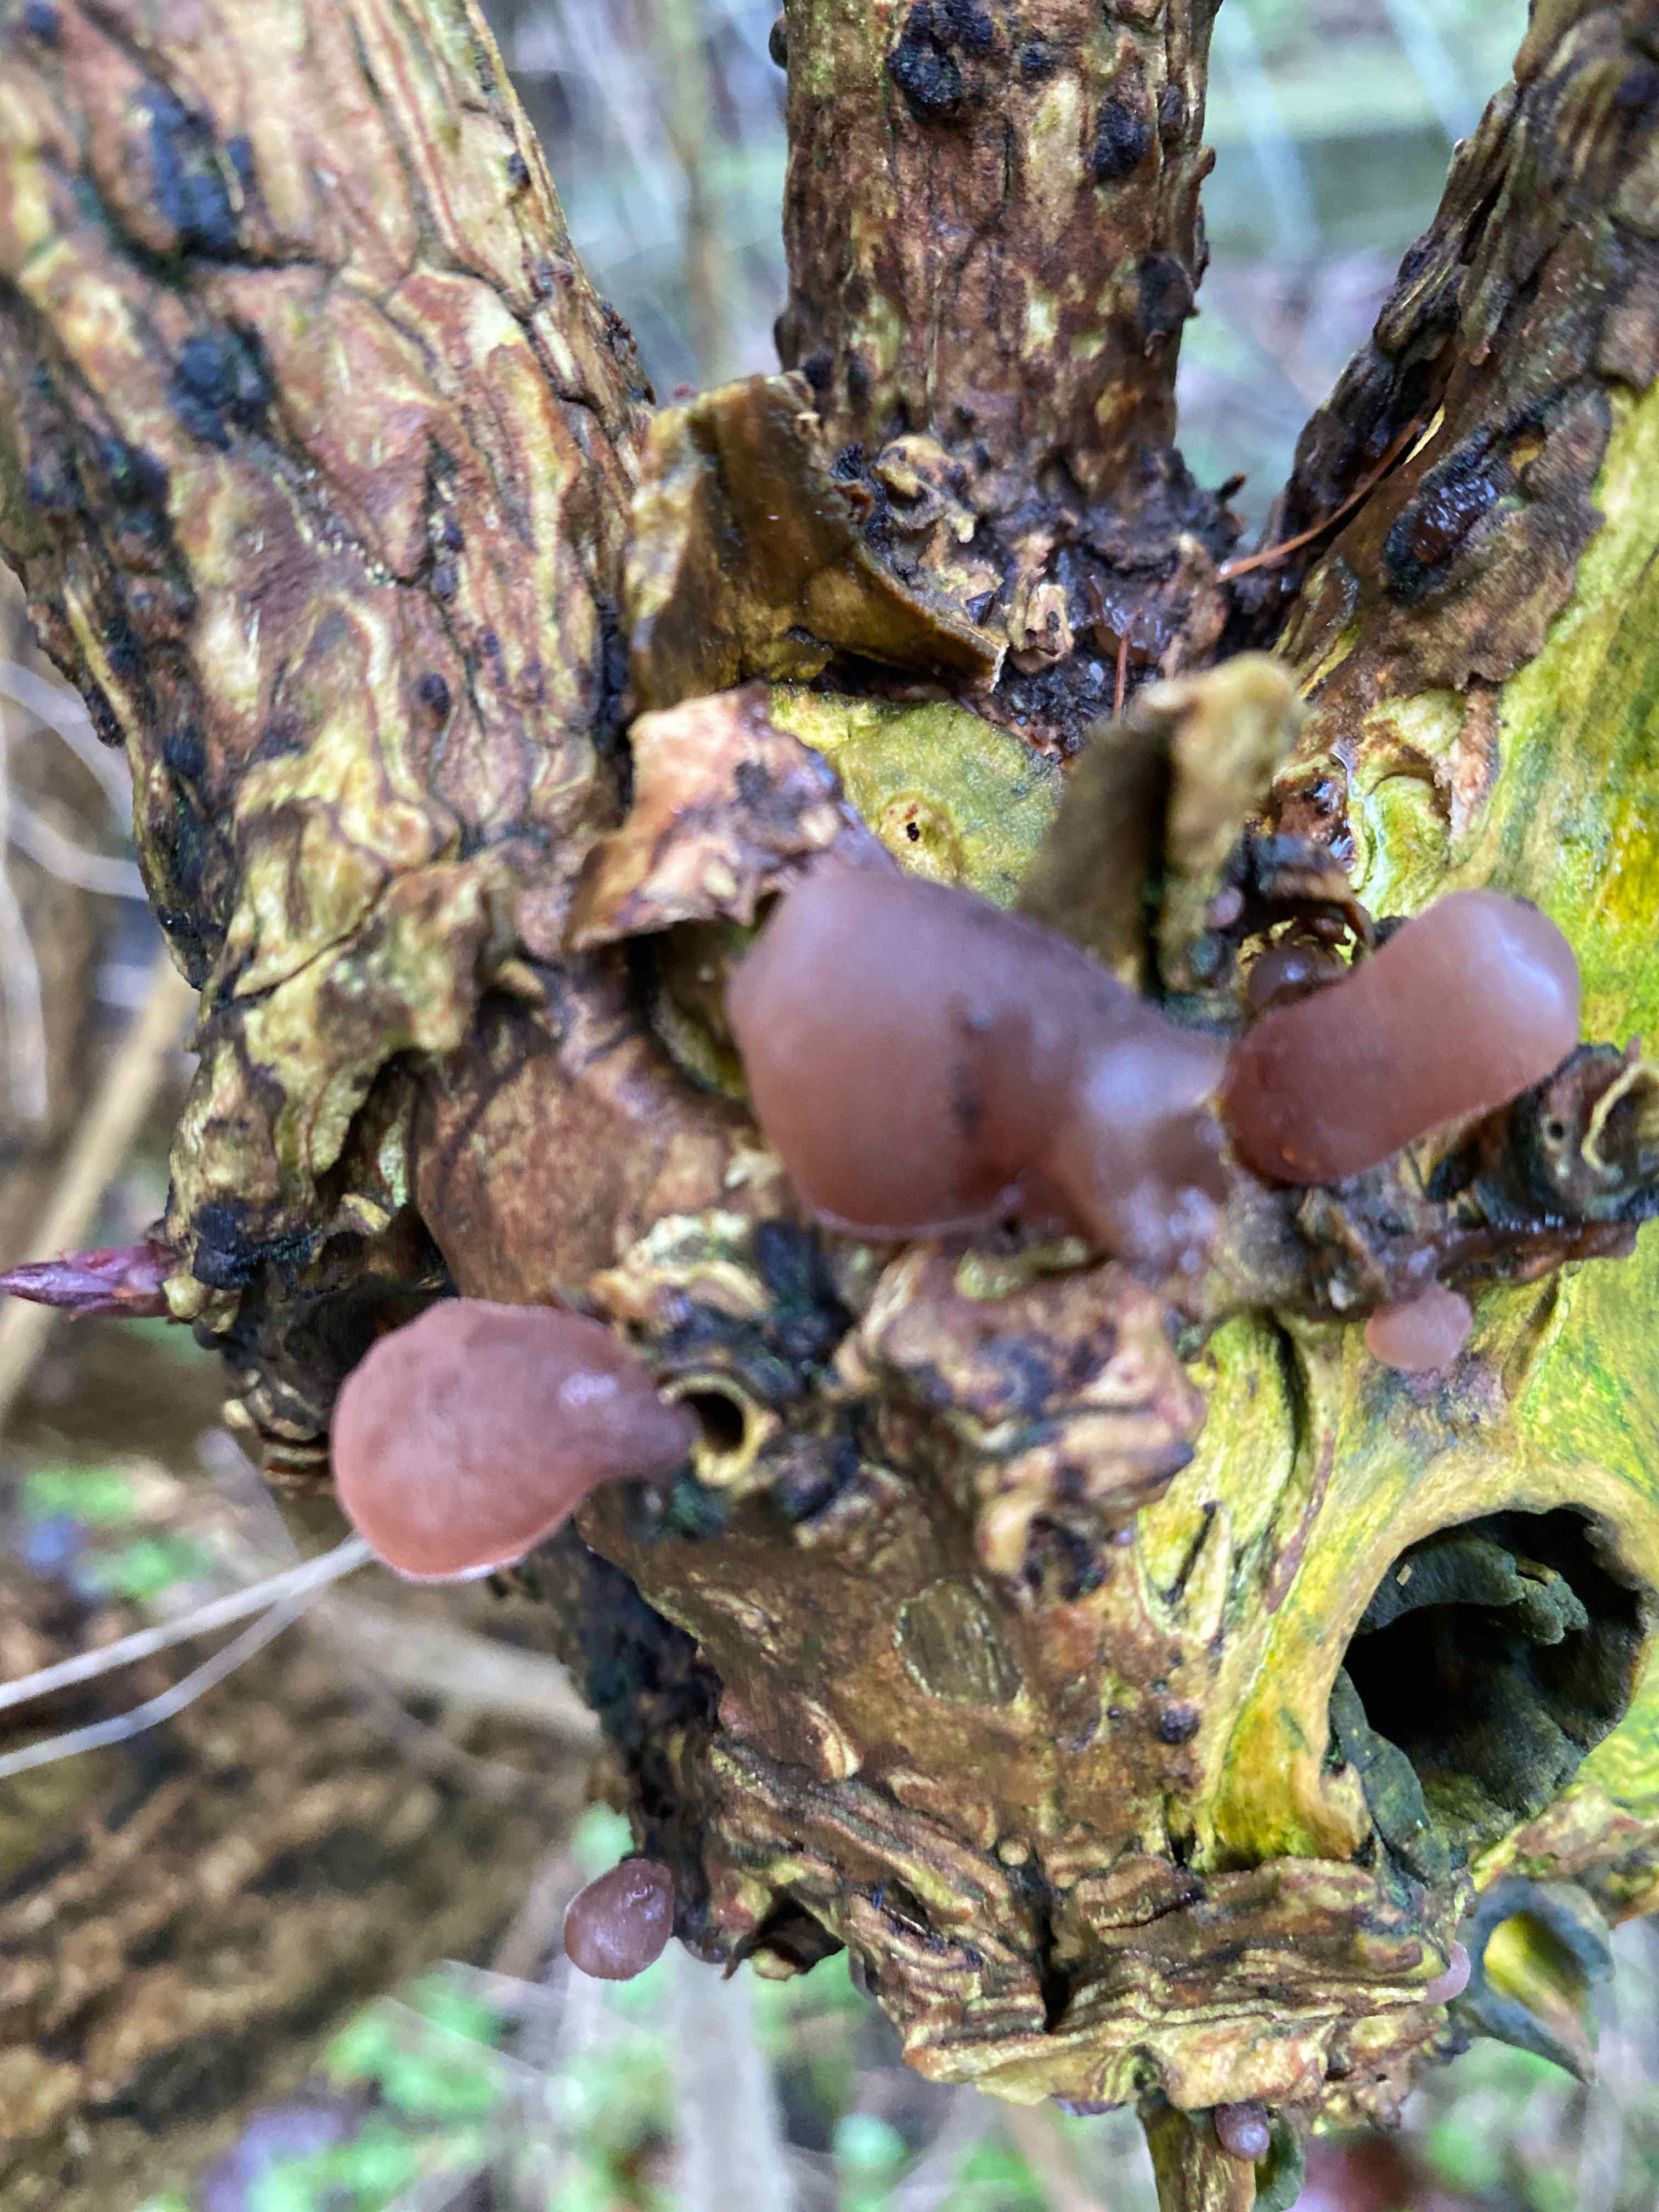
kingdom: Fungi
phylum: Basidiomycota
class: Agaricomycetes
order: Auriculariales
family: Auriculariaceae
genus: Auricularia
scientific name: Auricularia auricula-judae
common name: almindelig judasøre
